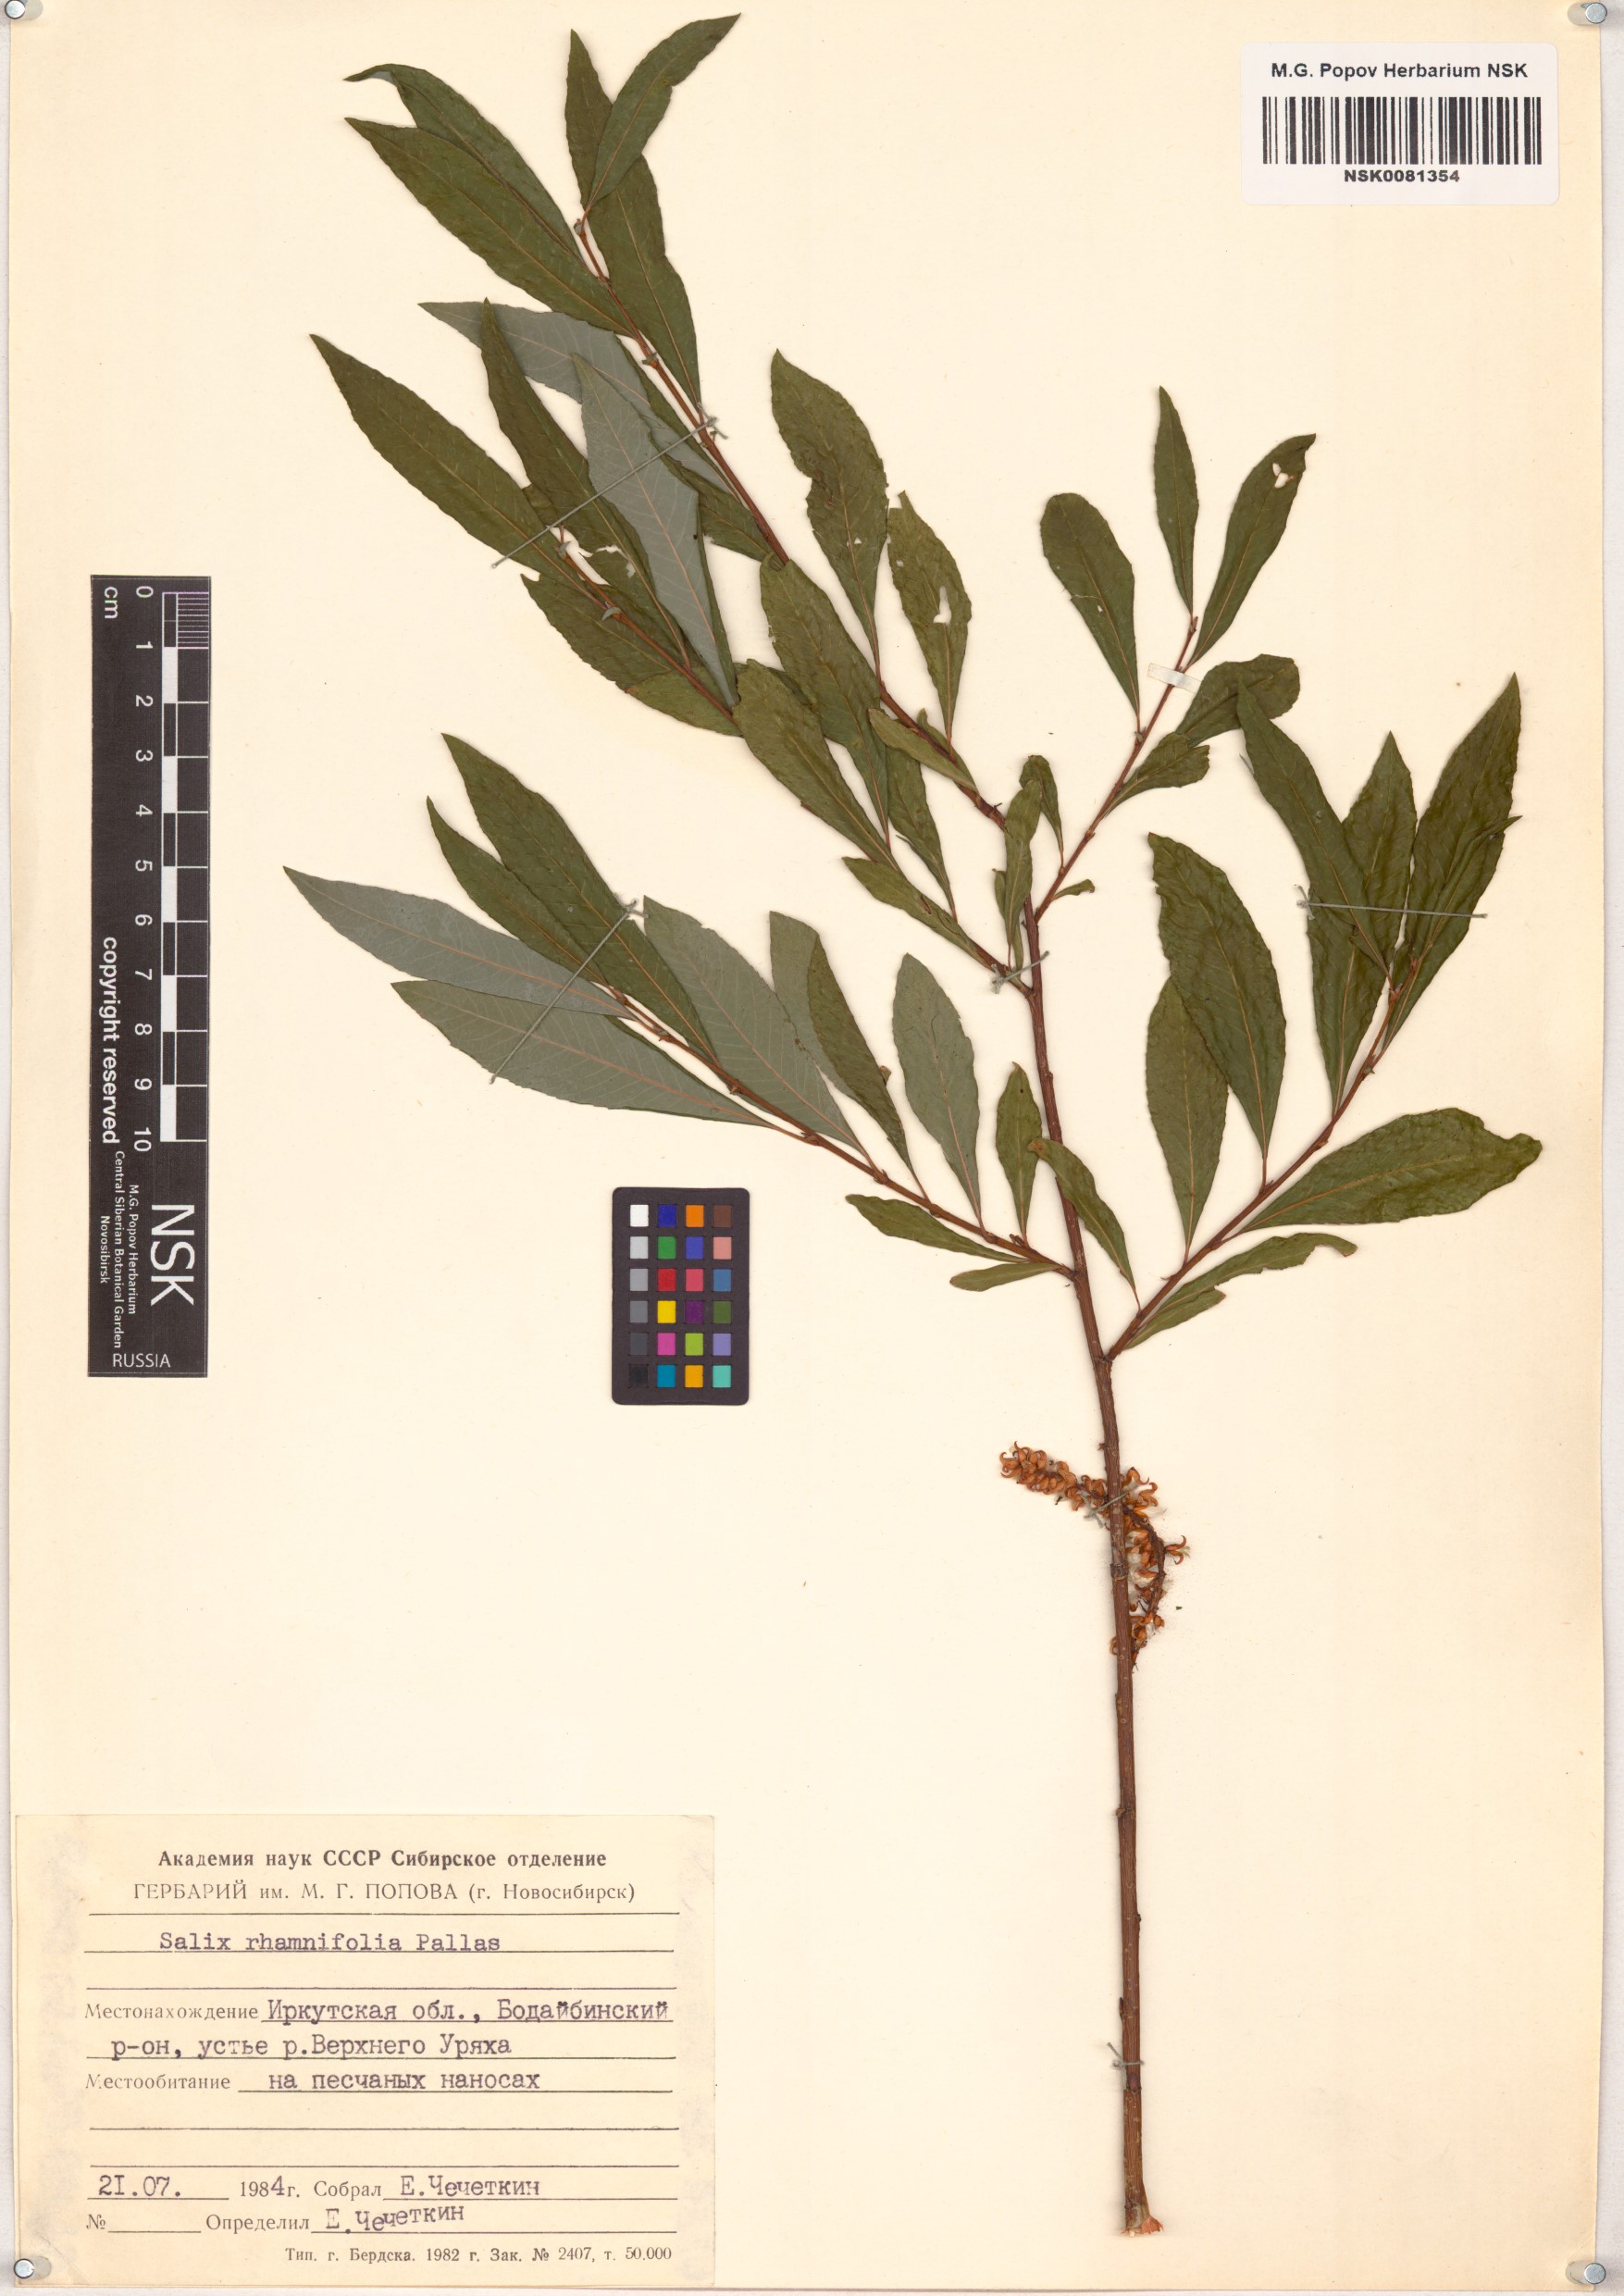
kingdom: Plantae
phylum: Tracheophyta
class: Magnoliopsida
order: Malpighiales
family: Salicaceae
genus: Salix
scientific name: Salix rhamnifolia
